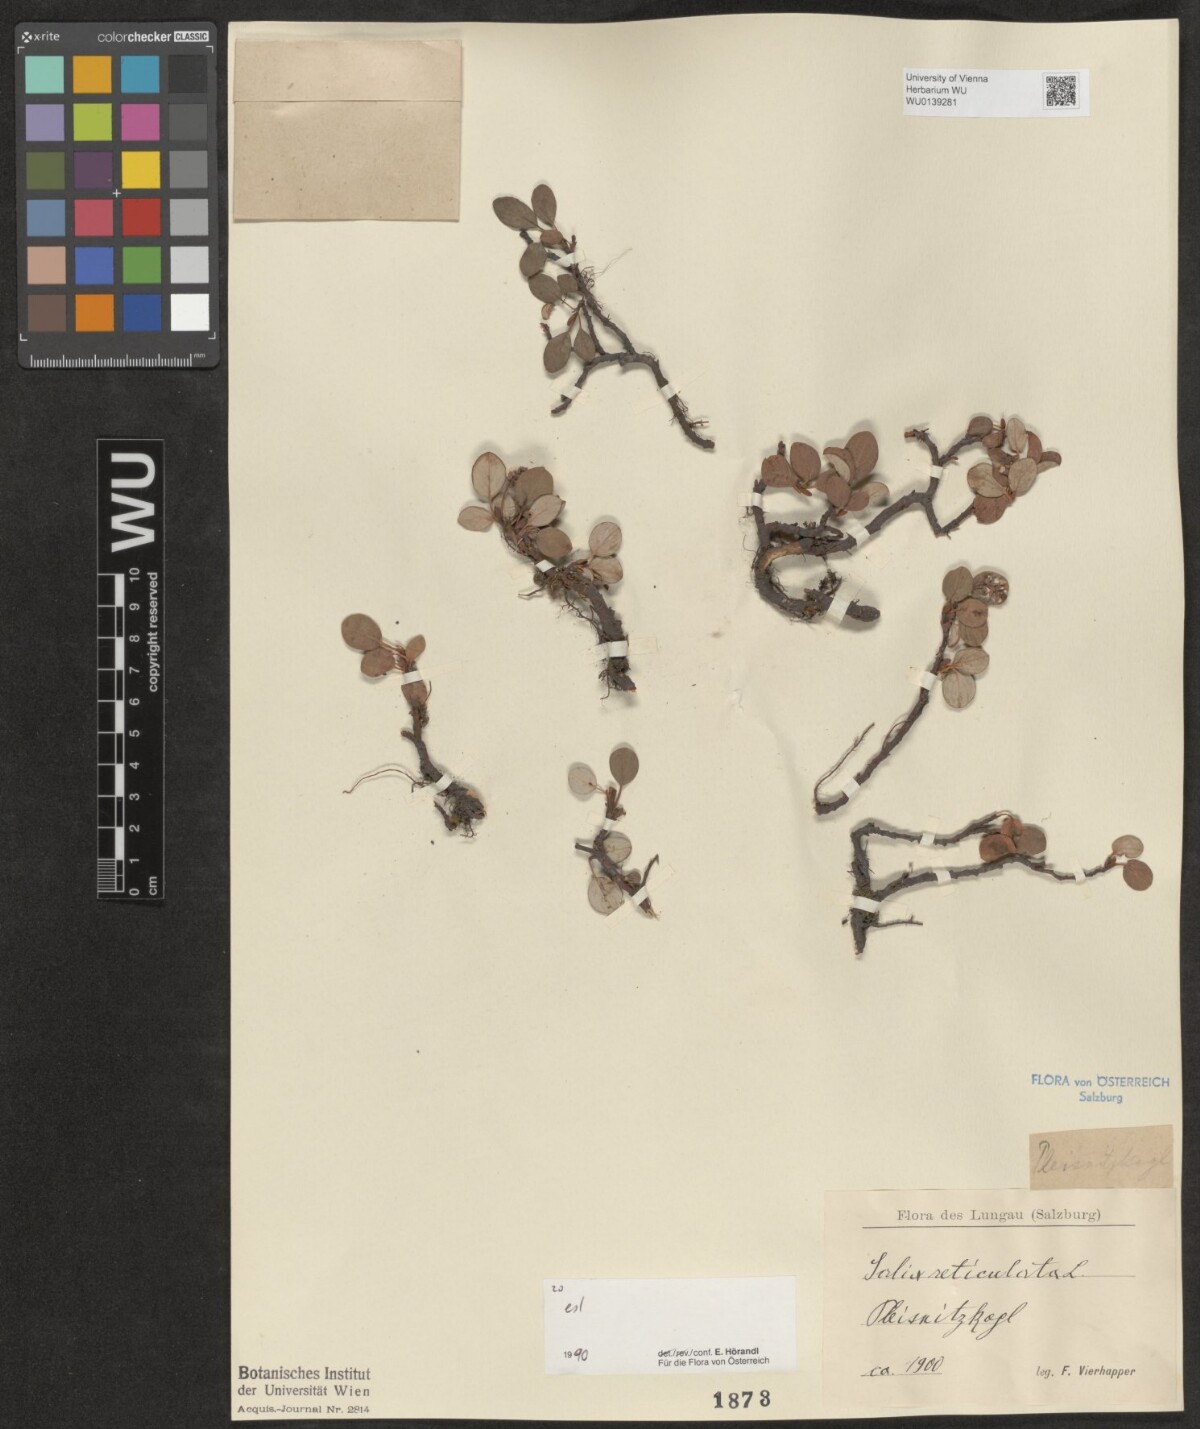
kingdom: Plantae
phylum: Tracheophyta
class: Magnoliopsida
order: Malpighiales
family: Salicaceae
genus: Salix
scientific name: Salix reticulata
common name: Net-leaved willow
